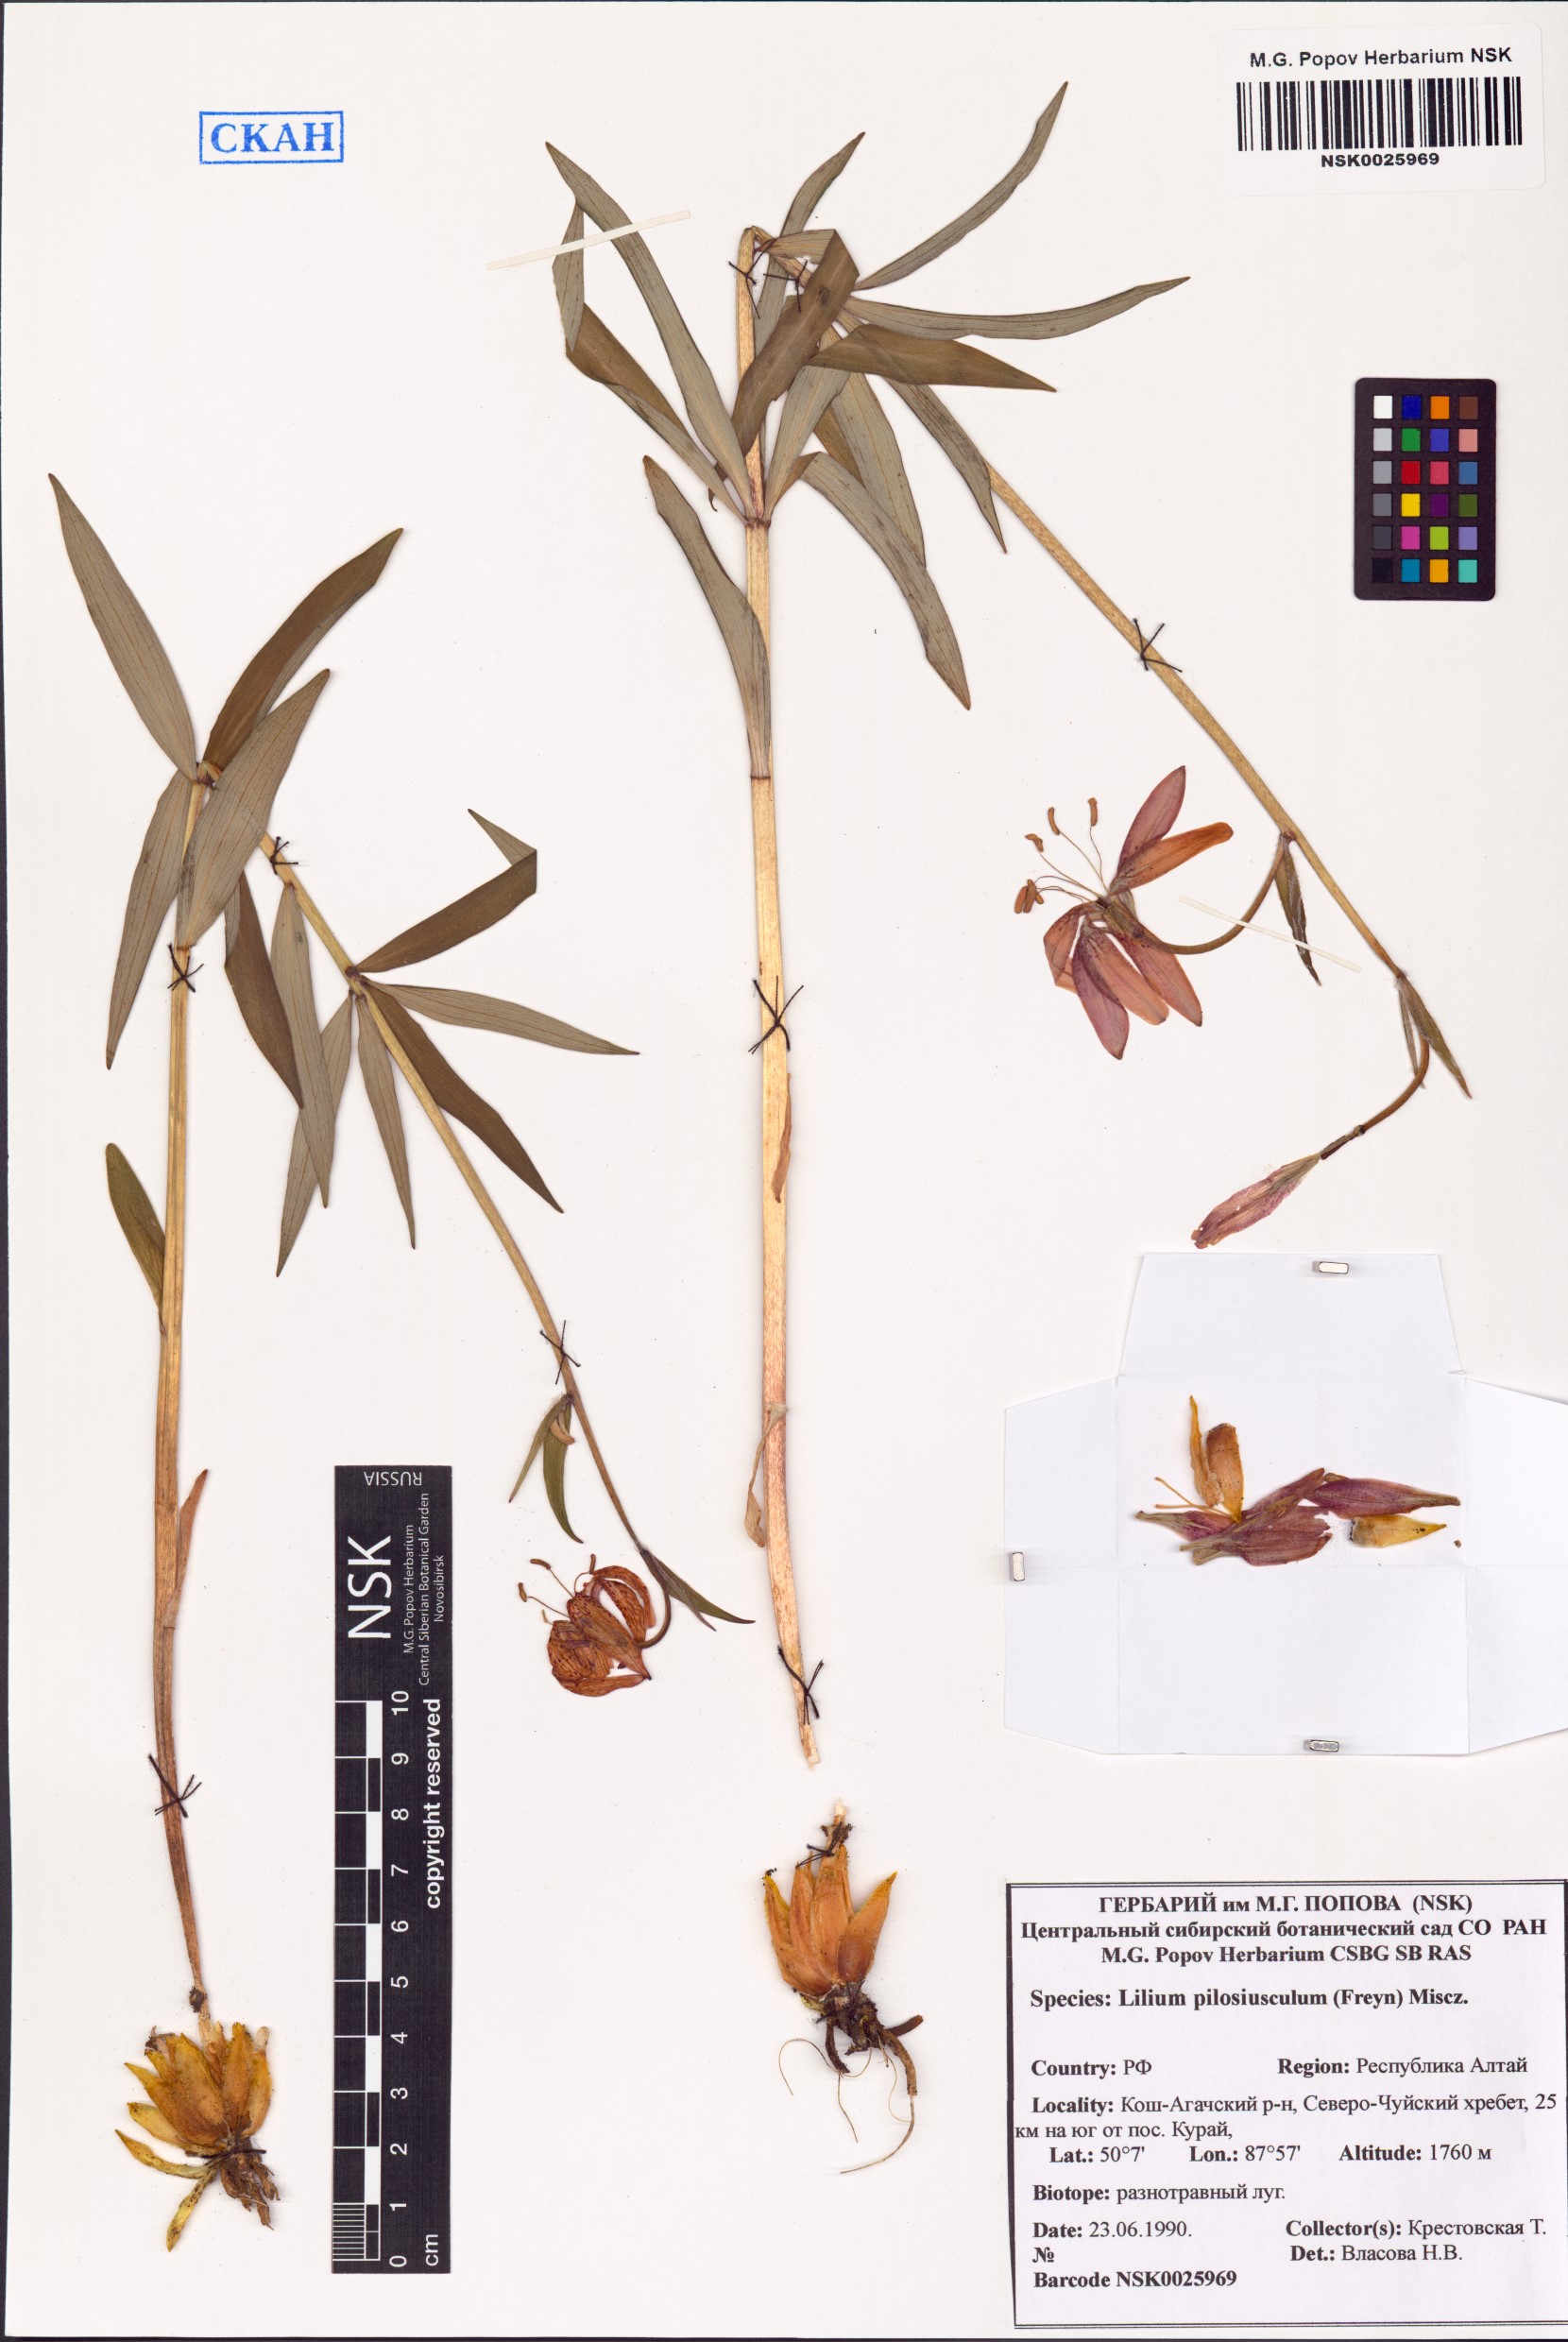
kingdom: Plantae
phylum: Tracheophyta
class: Liliopsida
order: Liliales
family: Liliaceae
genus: Lilium
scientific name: Lilium martagon
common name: Martagon lily
